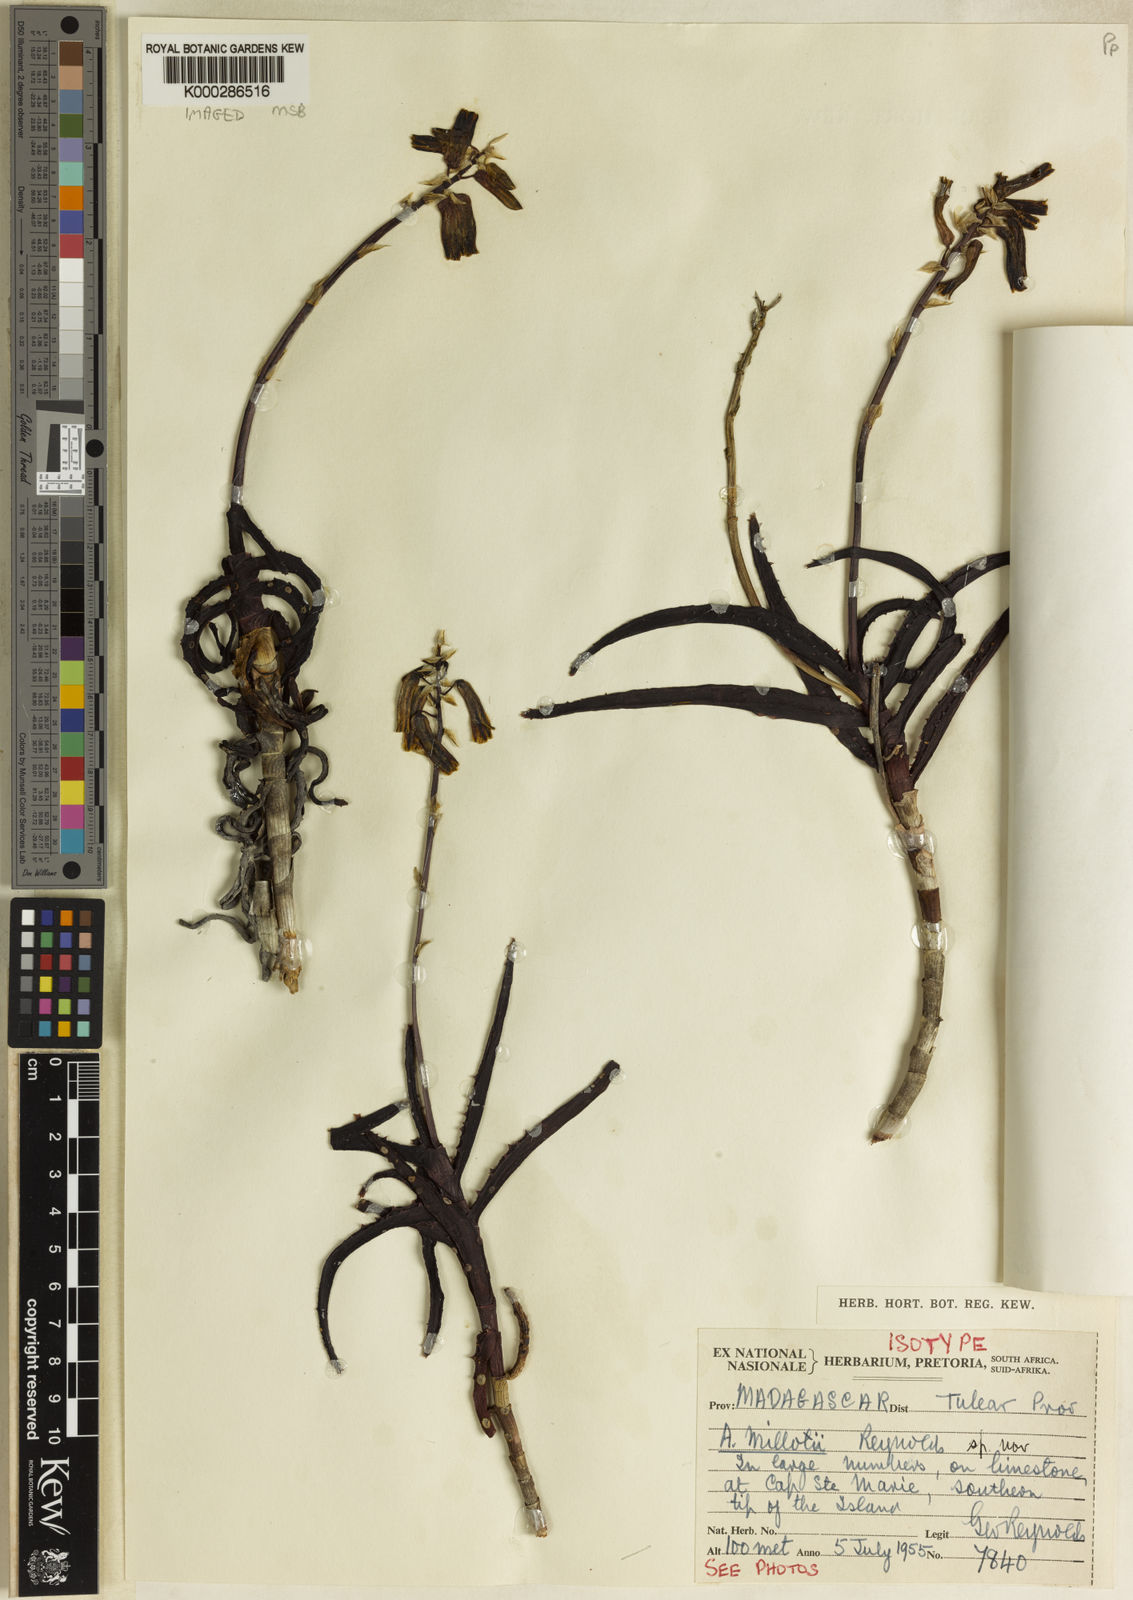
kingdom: Plantae
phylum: Tracheophyta
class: Liliopsida
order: Asparagales
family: Asphodelaceae
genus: Aloe
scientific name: Aloe millotii
